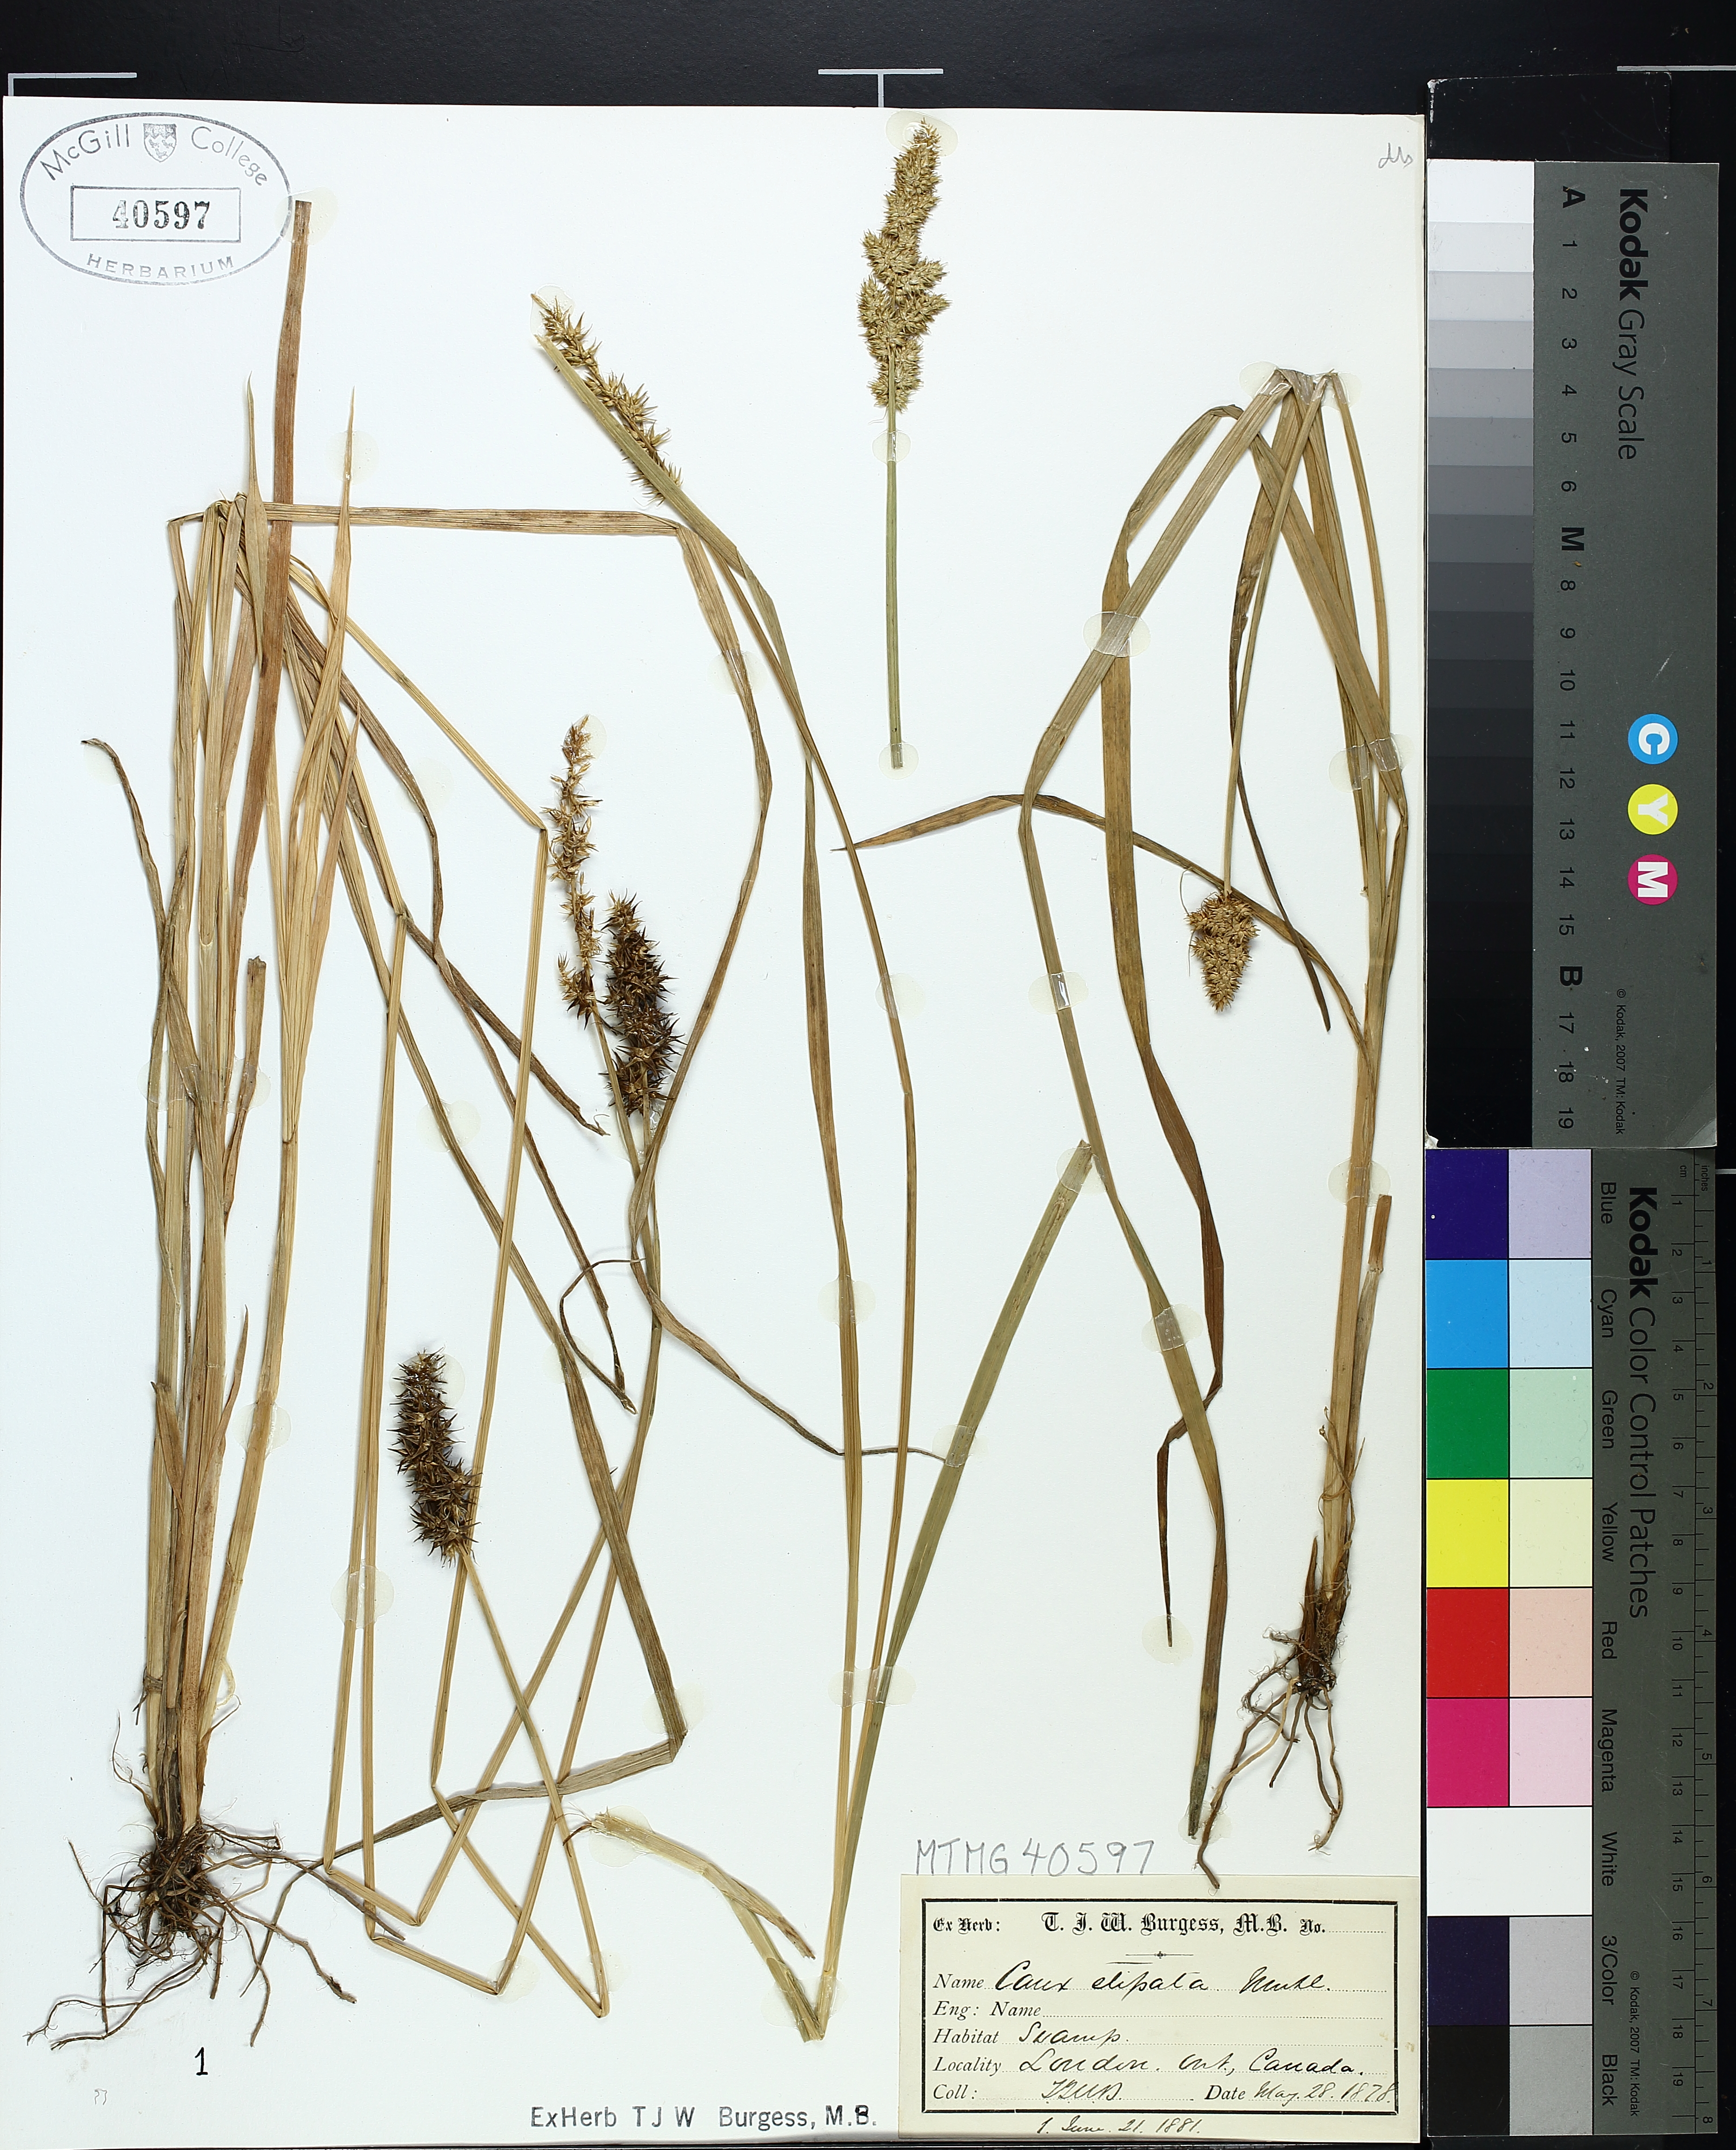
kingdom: Plantae
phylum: Tracheophyta
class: Liliopsida
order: Poales
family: Cyperaceae
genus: Carex
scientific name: Carex stipata
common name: Awl-fruited sedge
